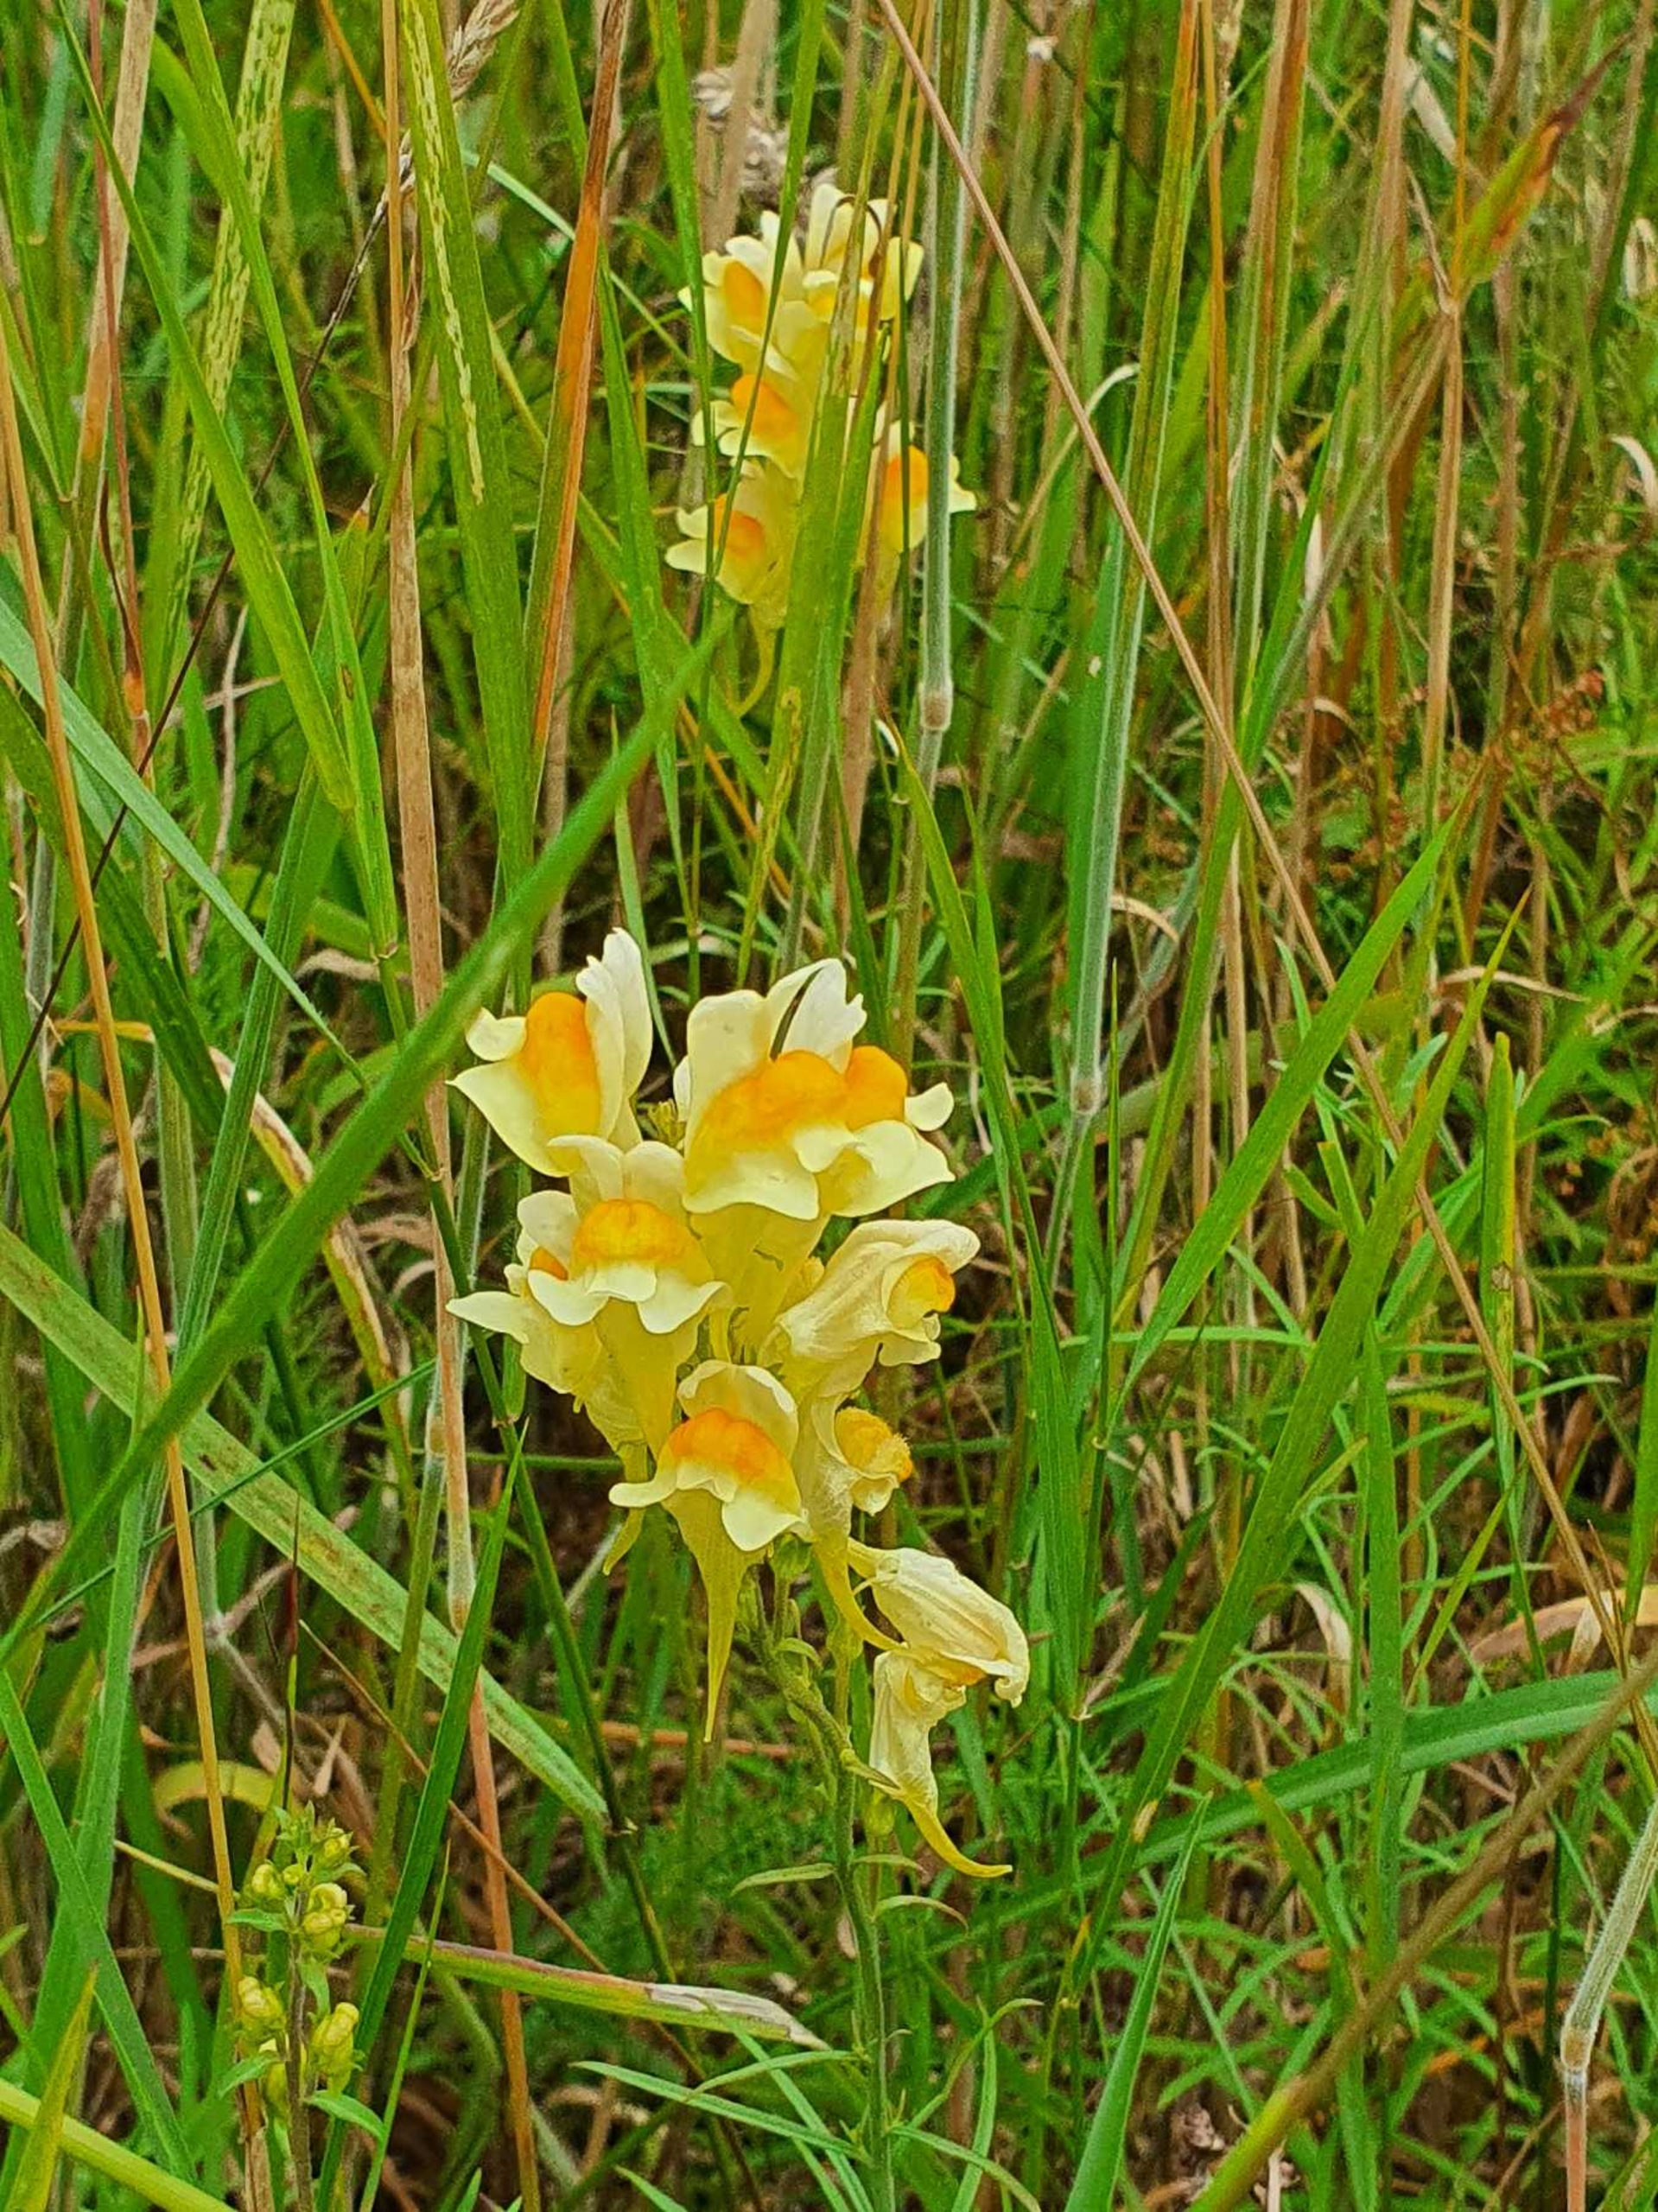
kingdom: Plantae
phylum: Tracheophyta
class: Magnoliopsida
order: Lamiales
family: Plantaginaceae
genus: Linaria
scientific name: Linaria vulgaris
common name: Almindelig torskemund
